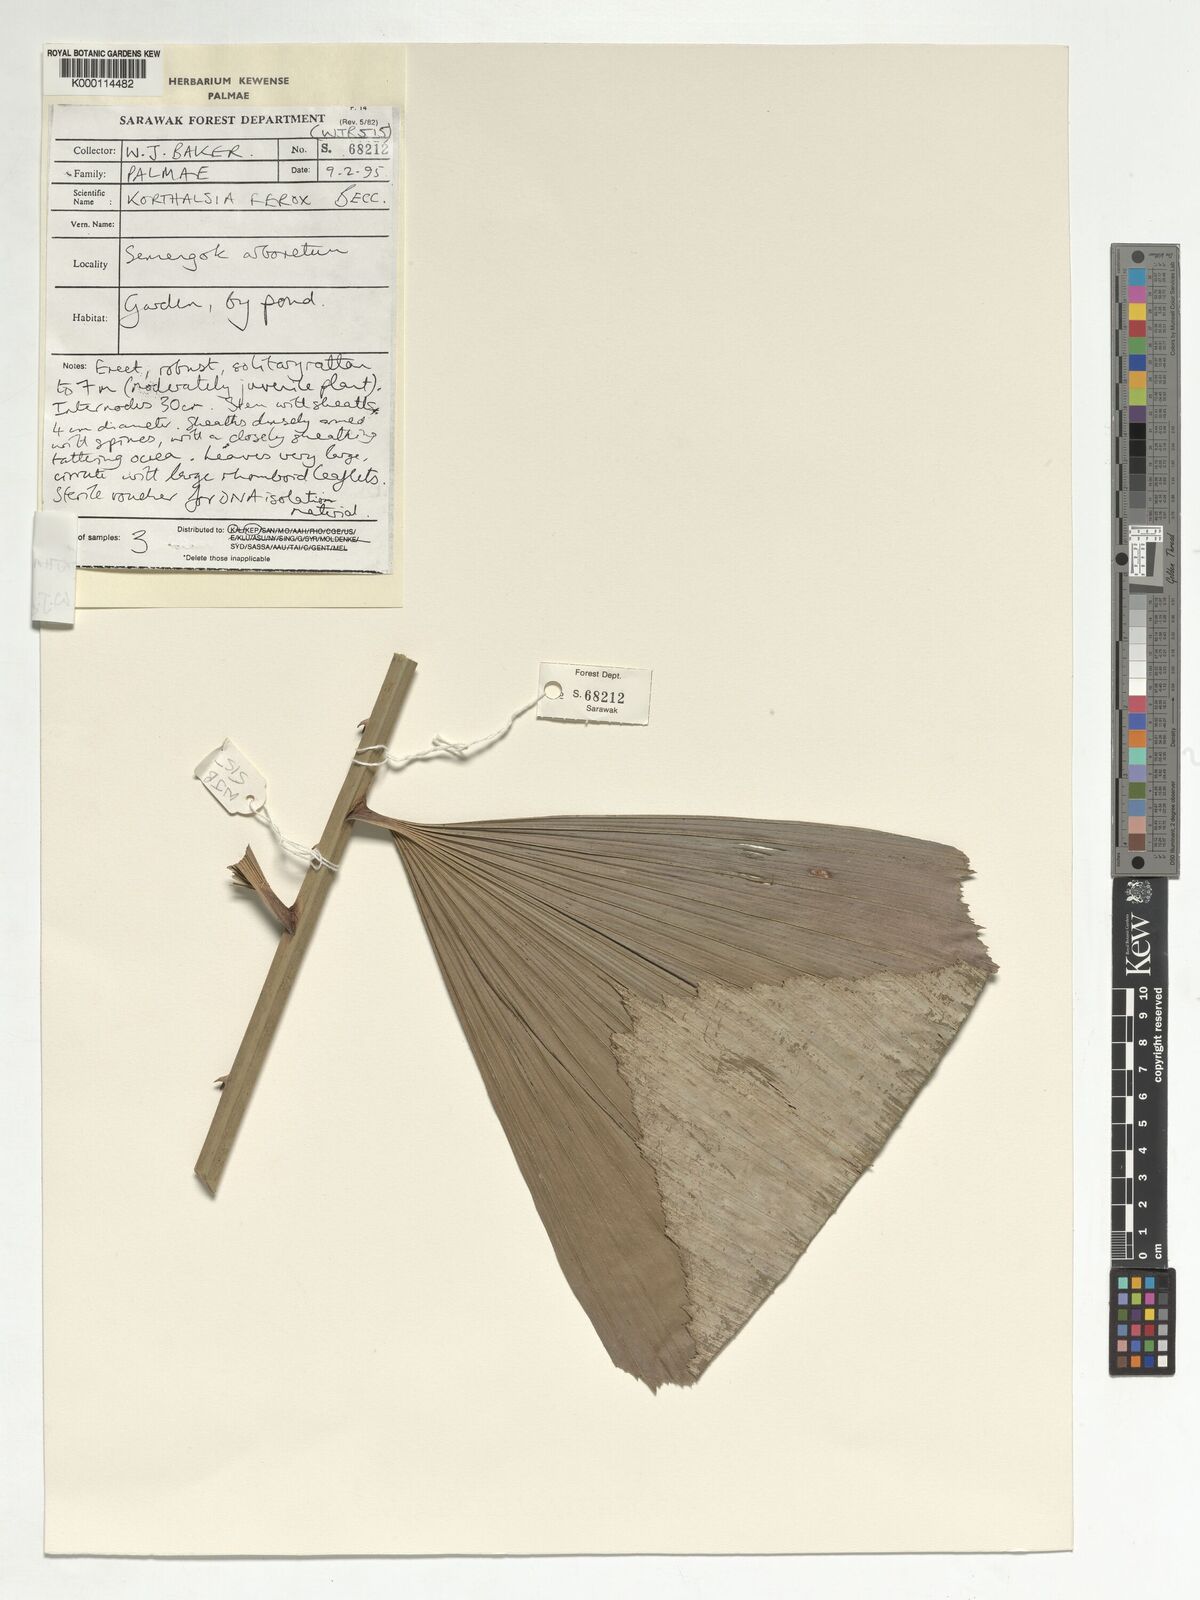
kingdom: Plantae
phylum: Tracheophyta
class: Liliopsida
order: Arecales
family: Arecaceae
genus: Korthalsia
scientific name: Korthalsia ferox
